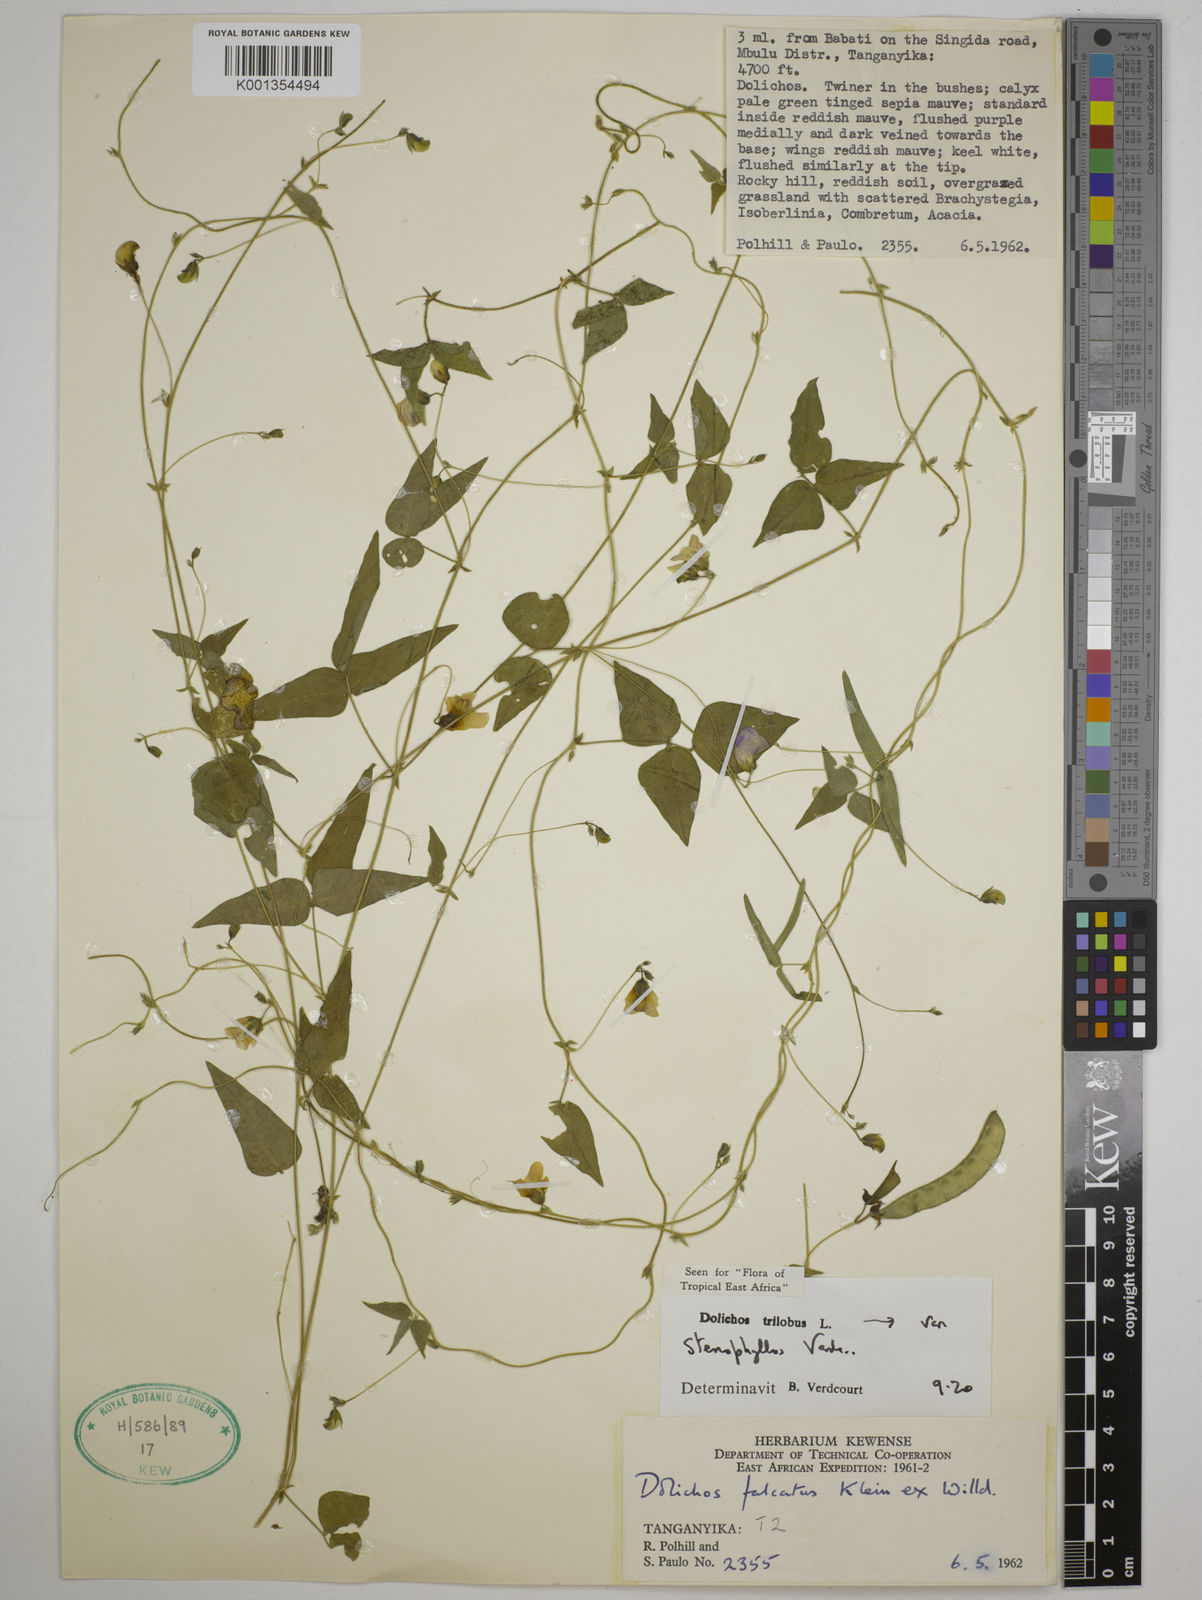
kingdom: Plantae
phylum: Tracheophyta
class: Magnoliopsida
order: Fabales
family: Fabaceae
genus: Dolichos
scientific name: Dolichos
